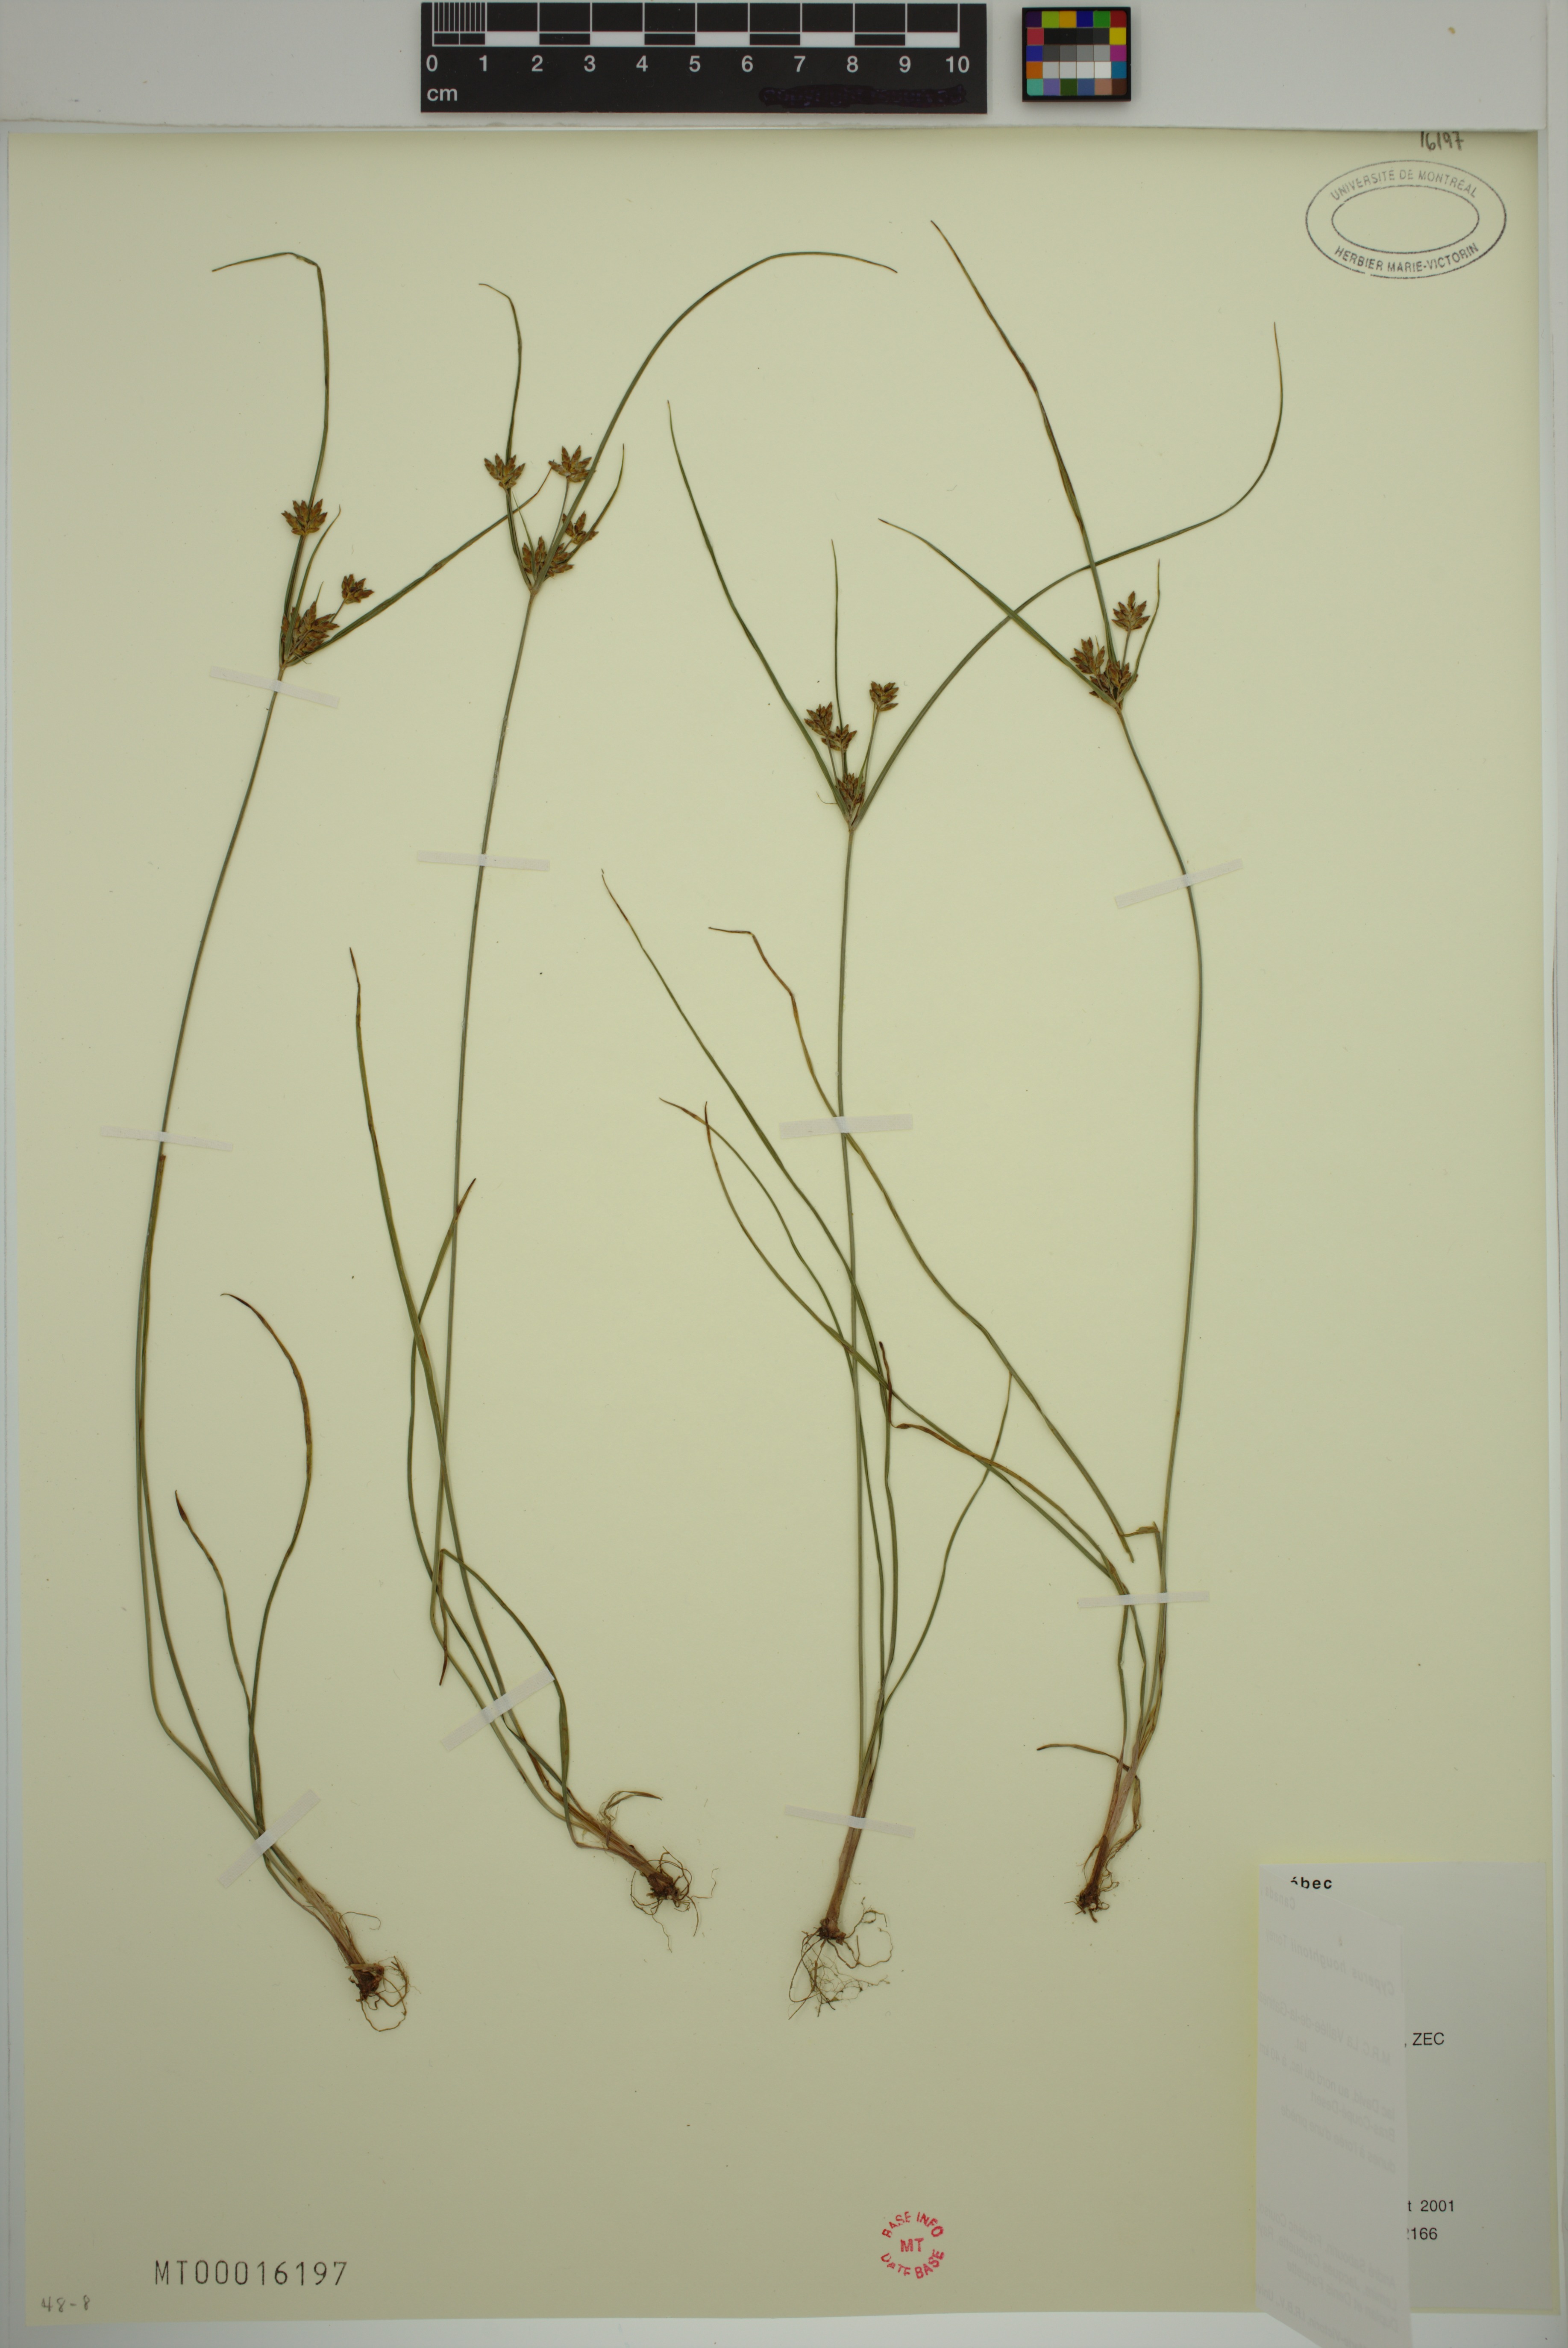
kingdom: Plantae
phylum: Tracheophyta
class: Liliopsida
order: Poales
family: Cyperaceae
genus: Cyperus
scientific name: Cyperus houghtonii
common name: Houghton's cyperus
